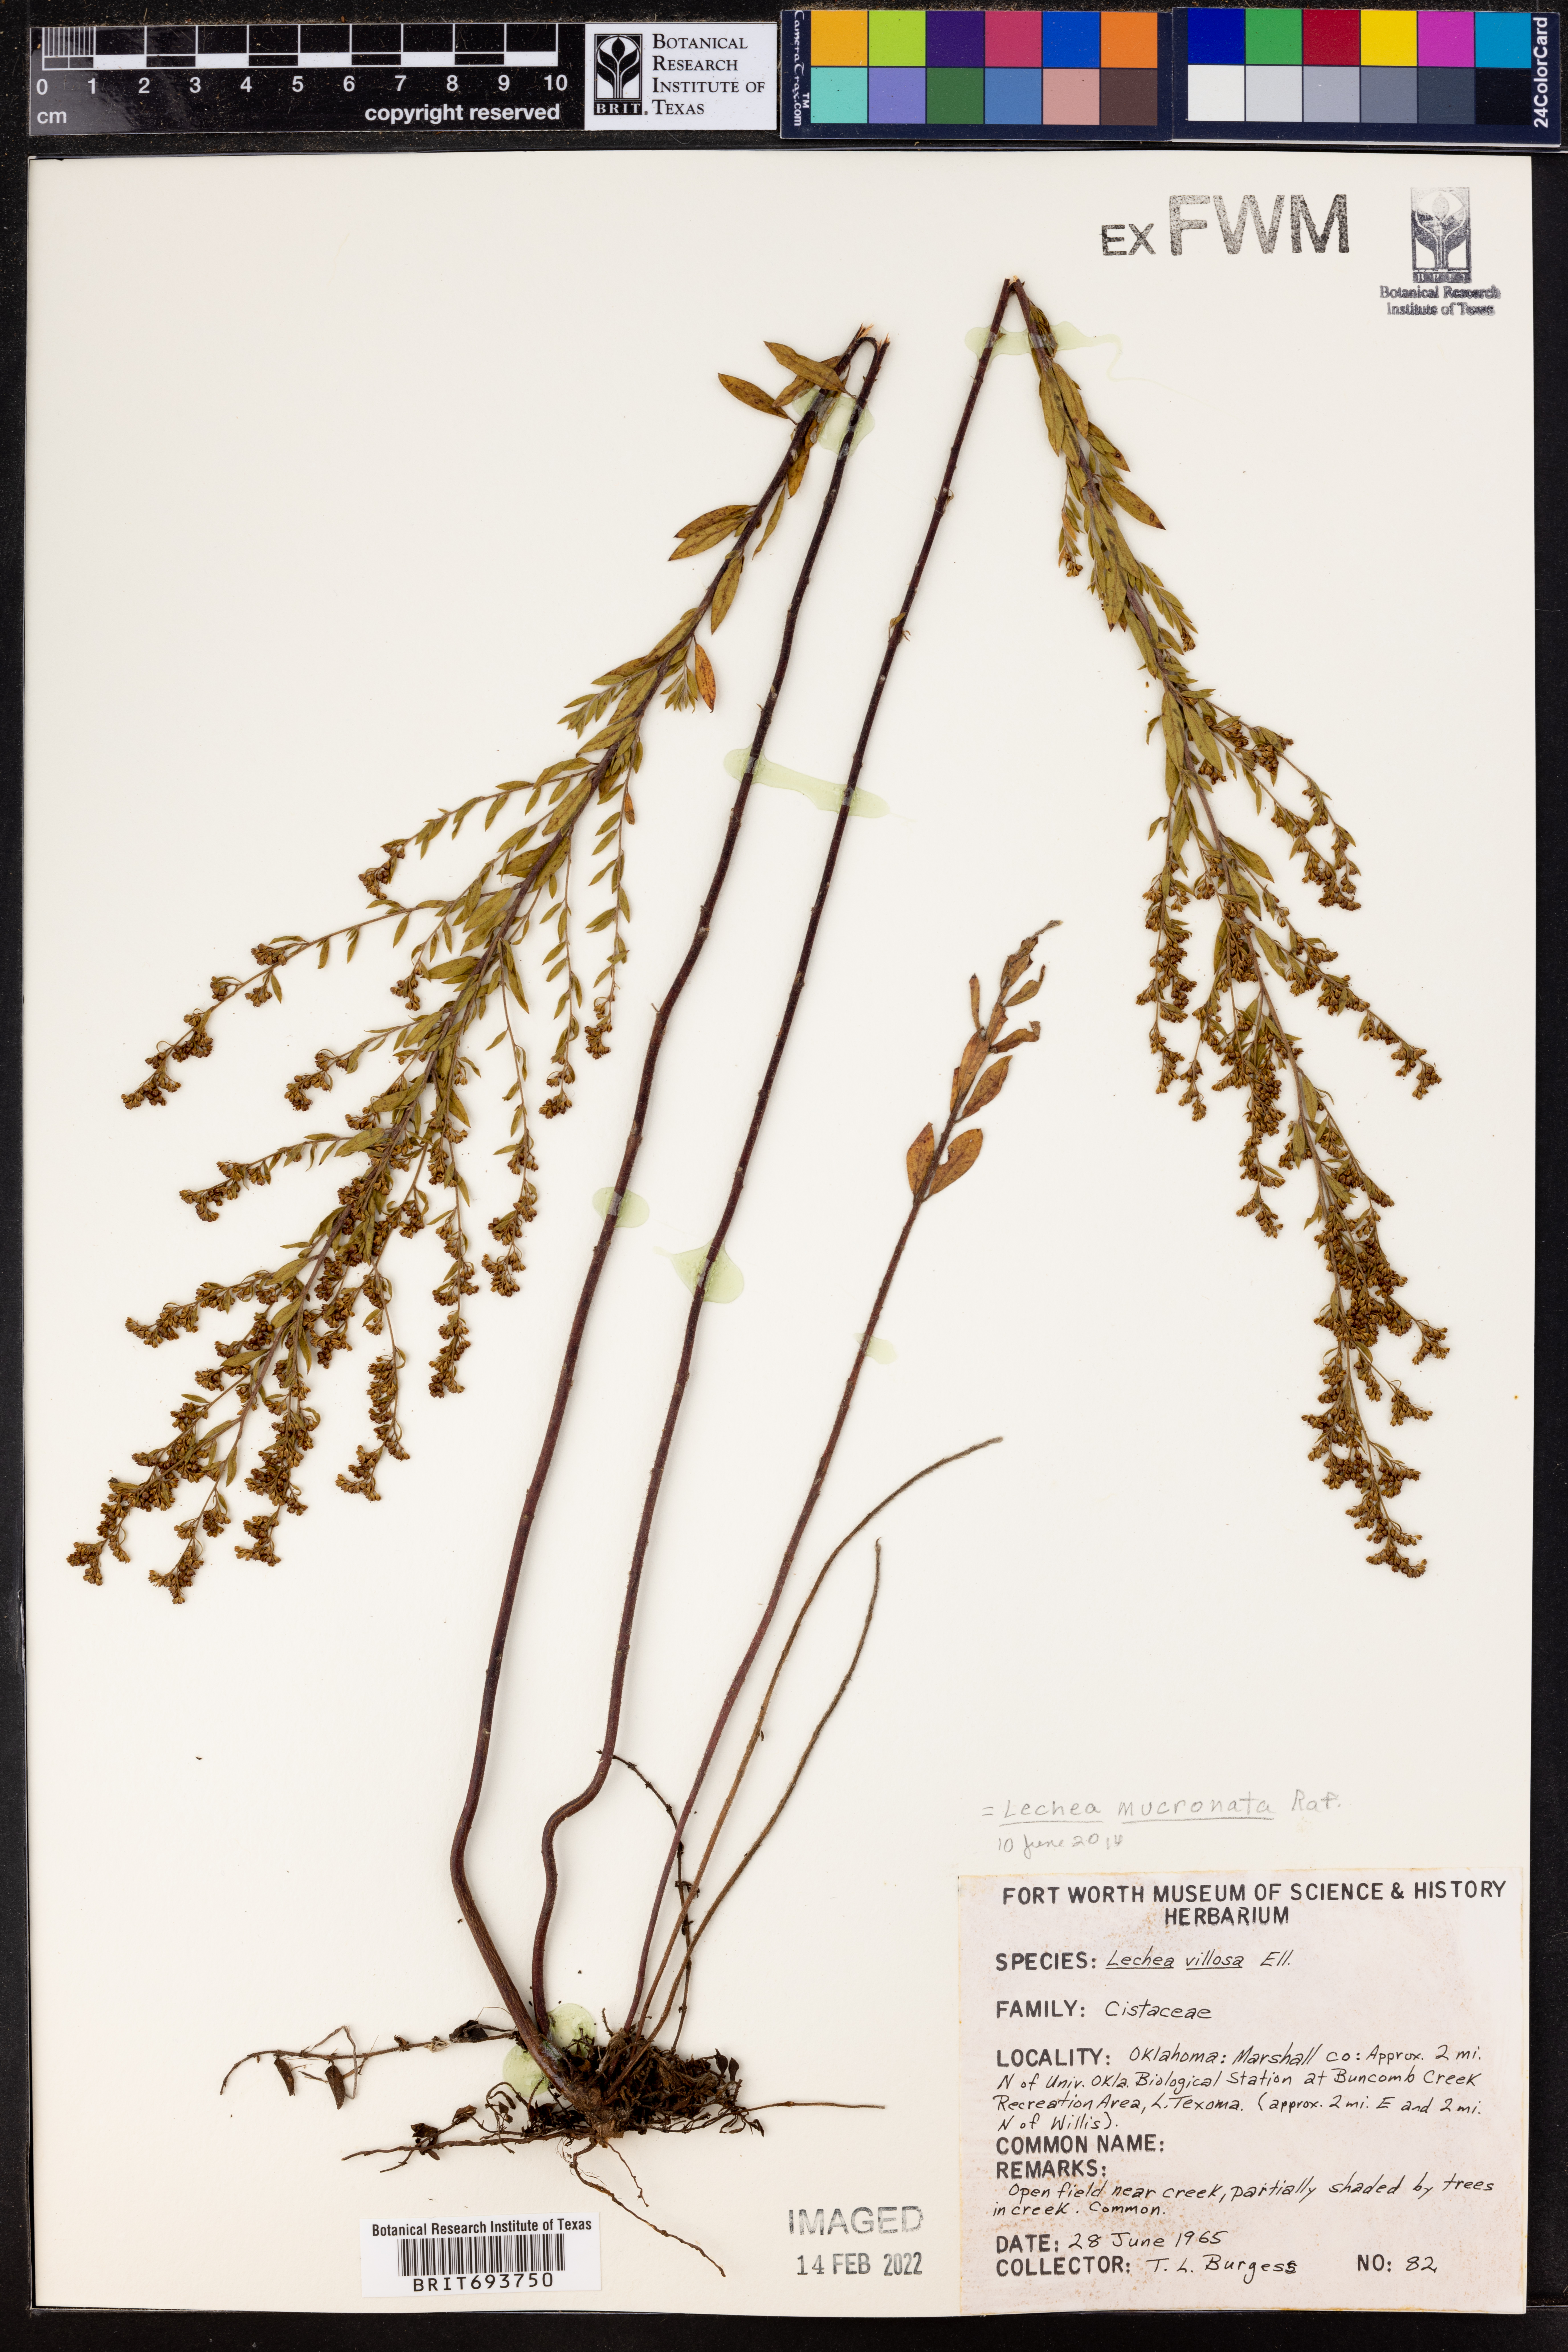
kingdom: Plantae
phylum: Tracheophyta
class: Magnoliopsida
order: Malvales
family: Cistaceae
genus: Lechea
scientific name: Lechea mucronata
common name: Hairy pinweed
